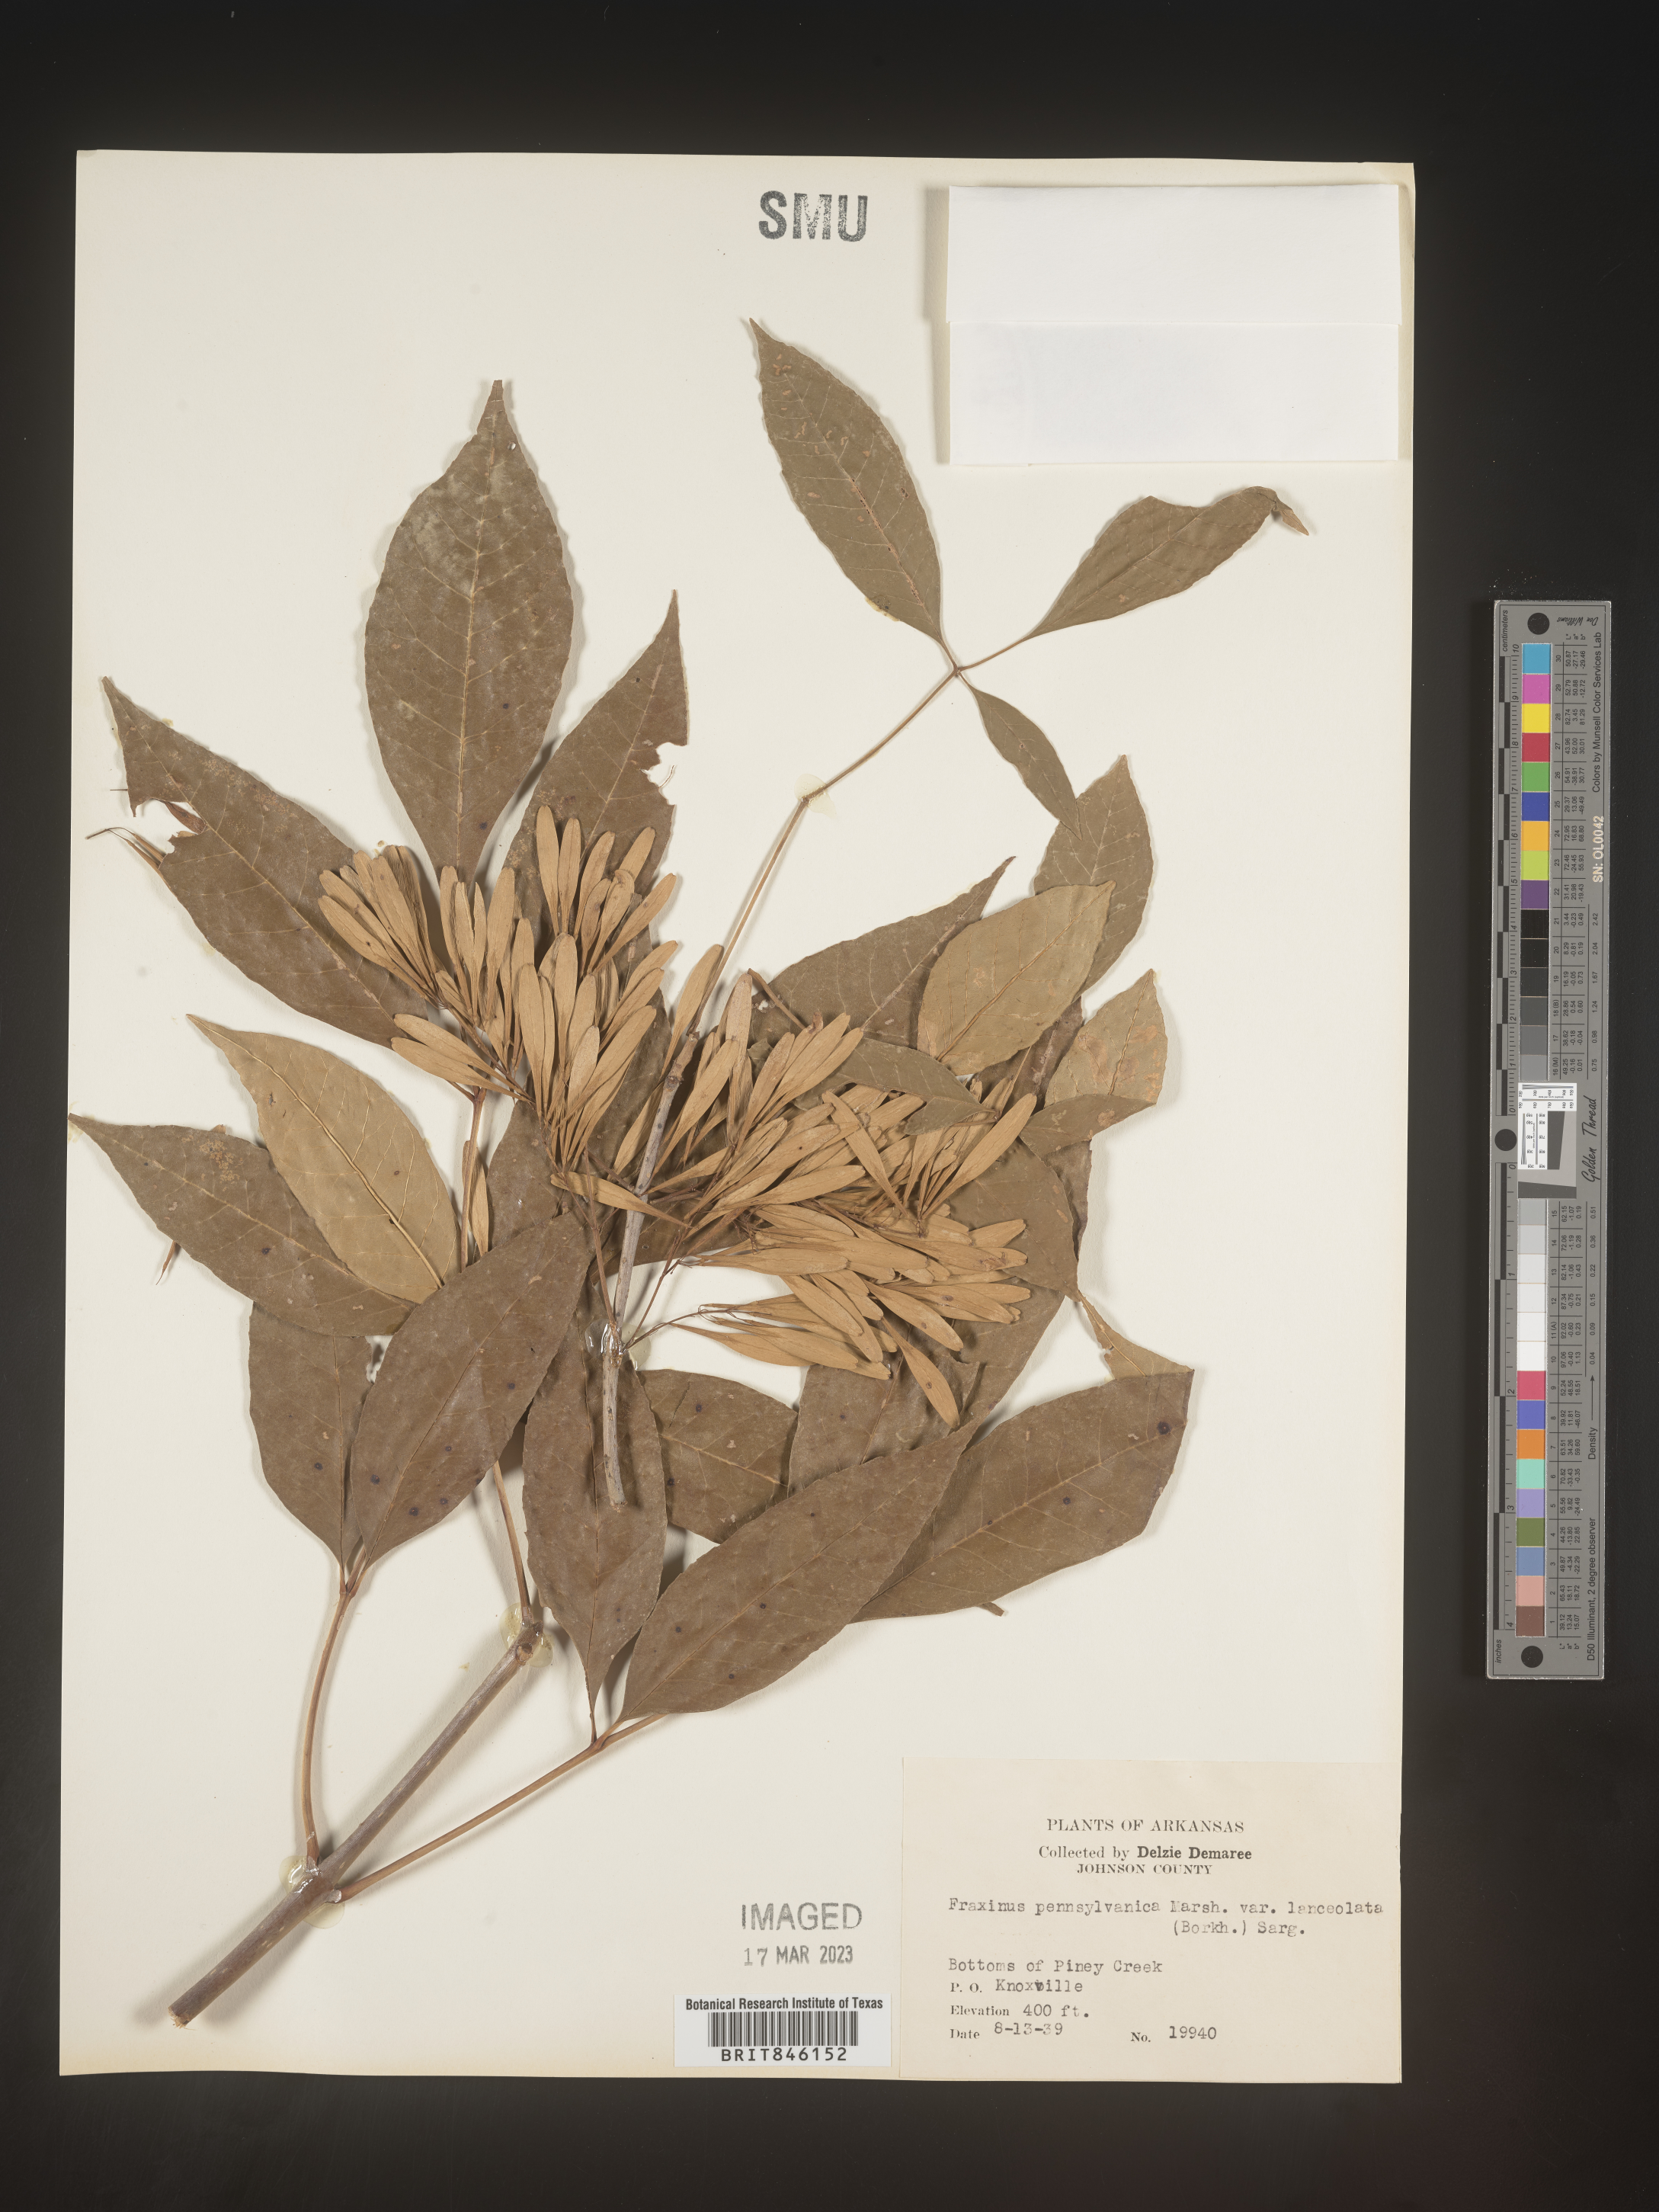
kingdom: Plantae
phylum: Tracheophyta
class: Magnoliopsida
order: Lamiales
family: Oleaceae
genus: Fraxinus
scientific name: Fraxinus pennsylvanica
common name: Green ash
